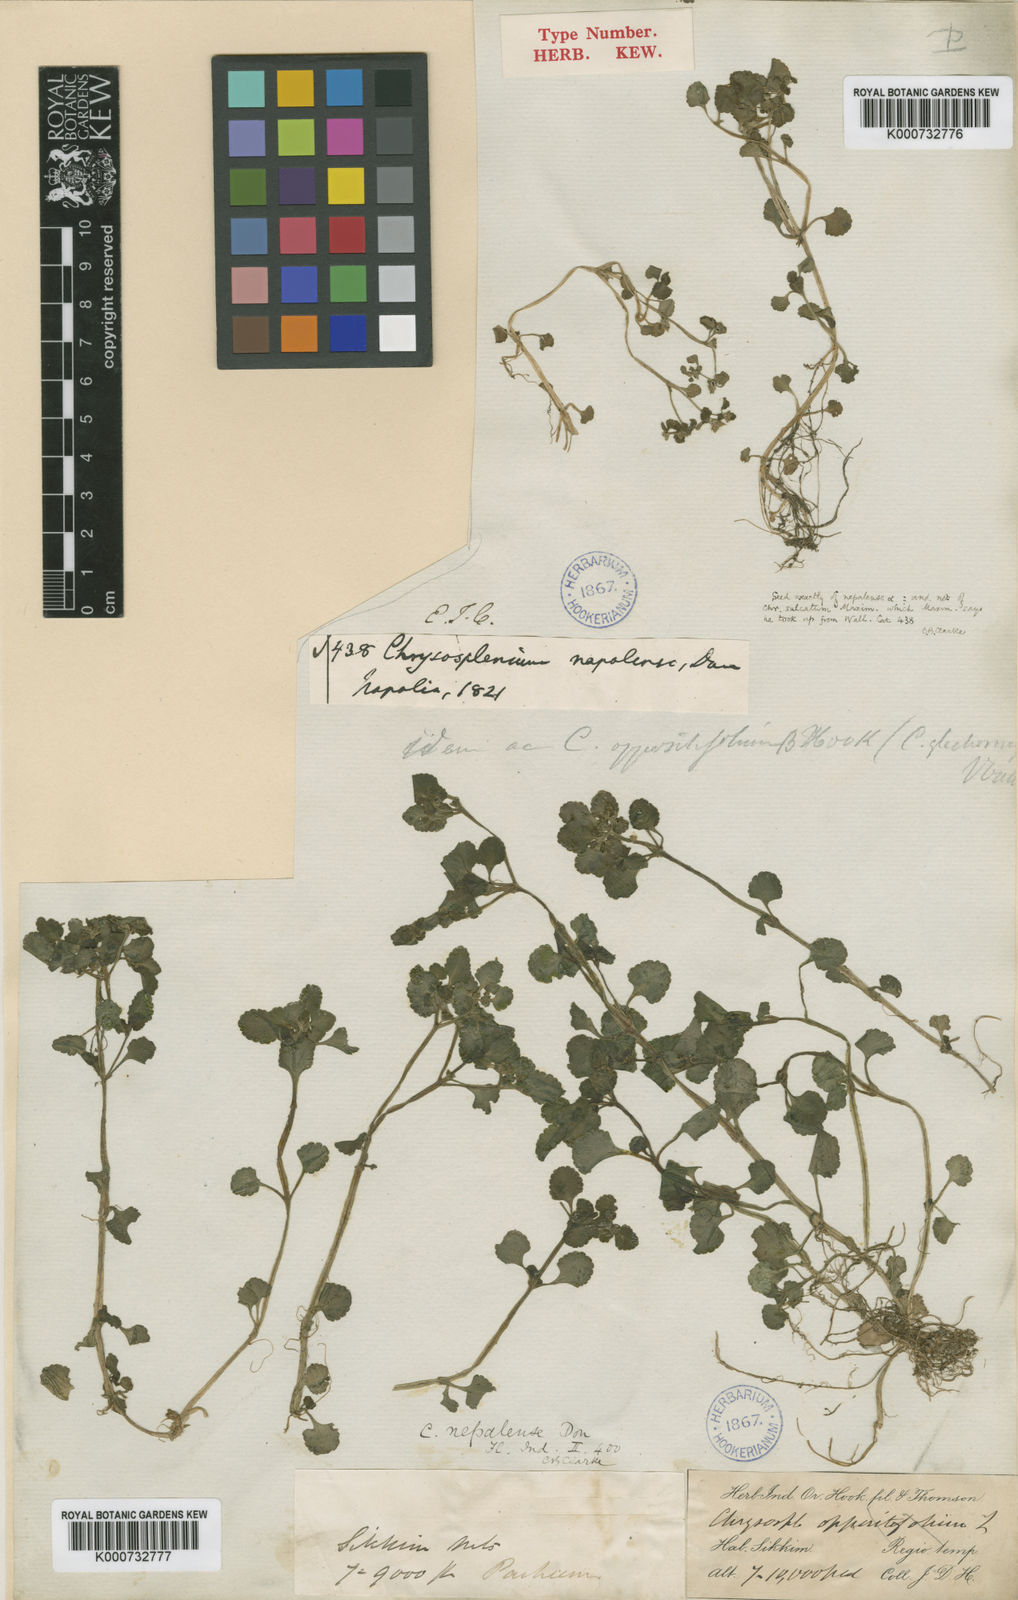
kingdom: Plantae
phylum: Tracheophyta
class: Magnoliopsida
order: Saxifragales
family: Saxifragaceae
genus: Chrysosplenium
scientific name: Chrysosplenium nepalense
